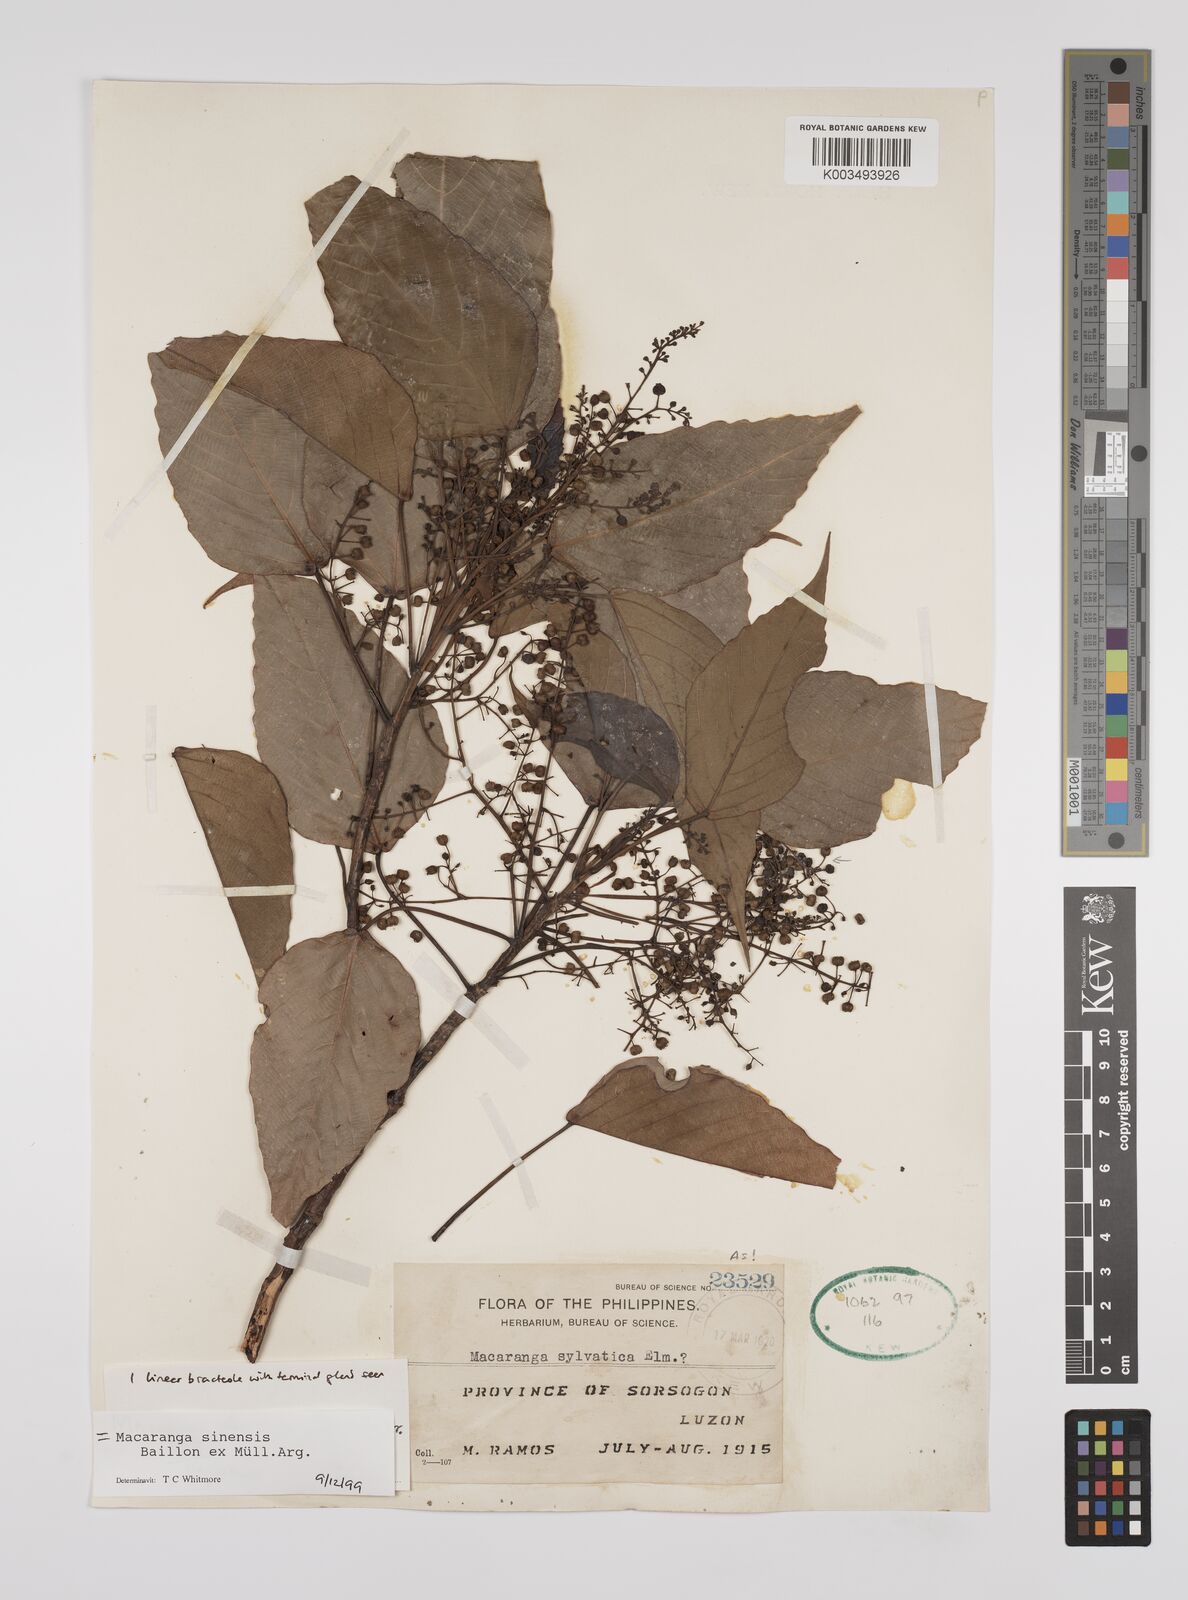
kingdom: Plantae
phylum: Tracheophyta
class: Magnoliopsida
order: Malpighiales
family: Euphorbiaceae
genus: Macaranga
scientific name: Macaranga sinensis
